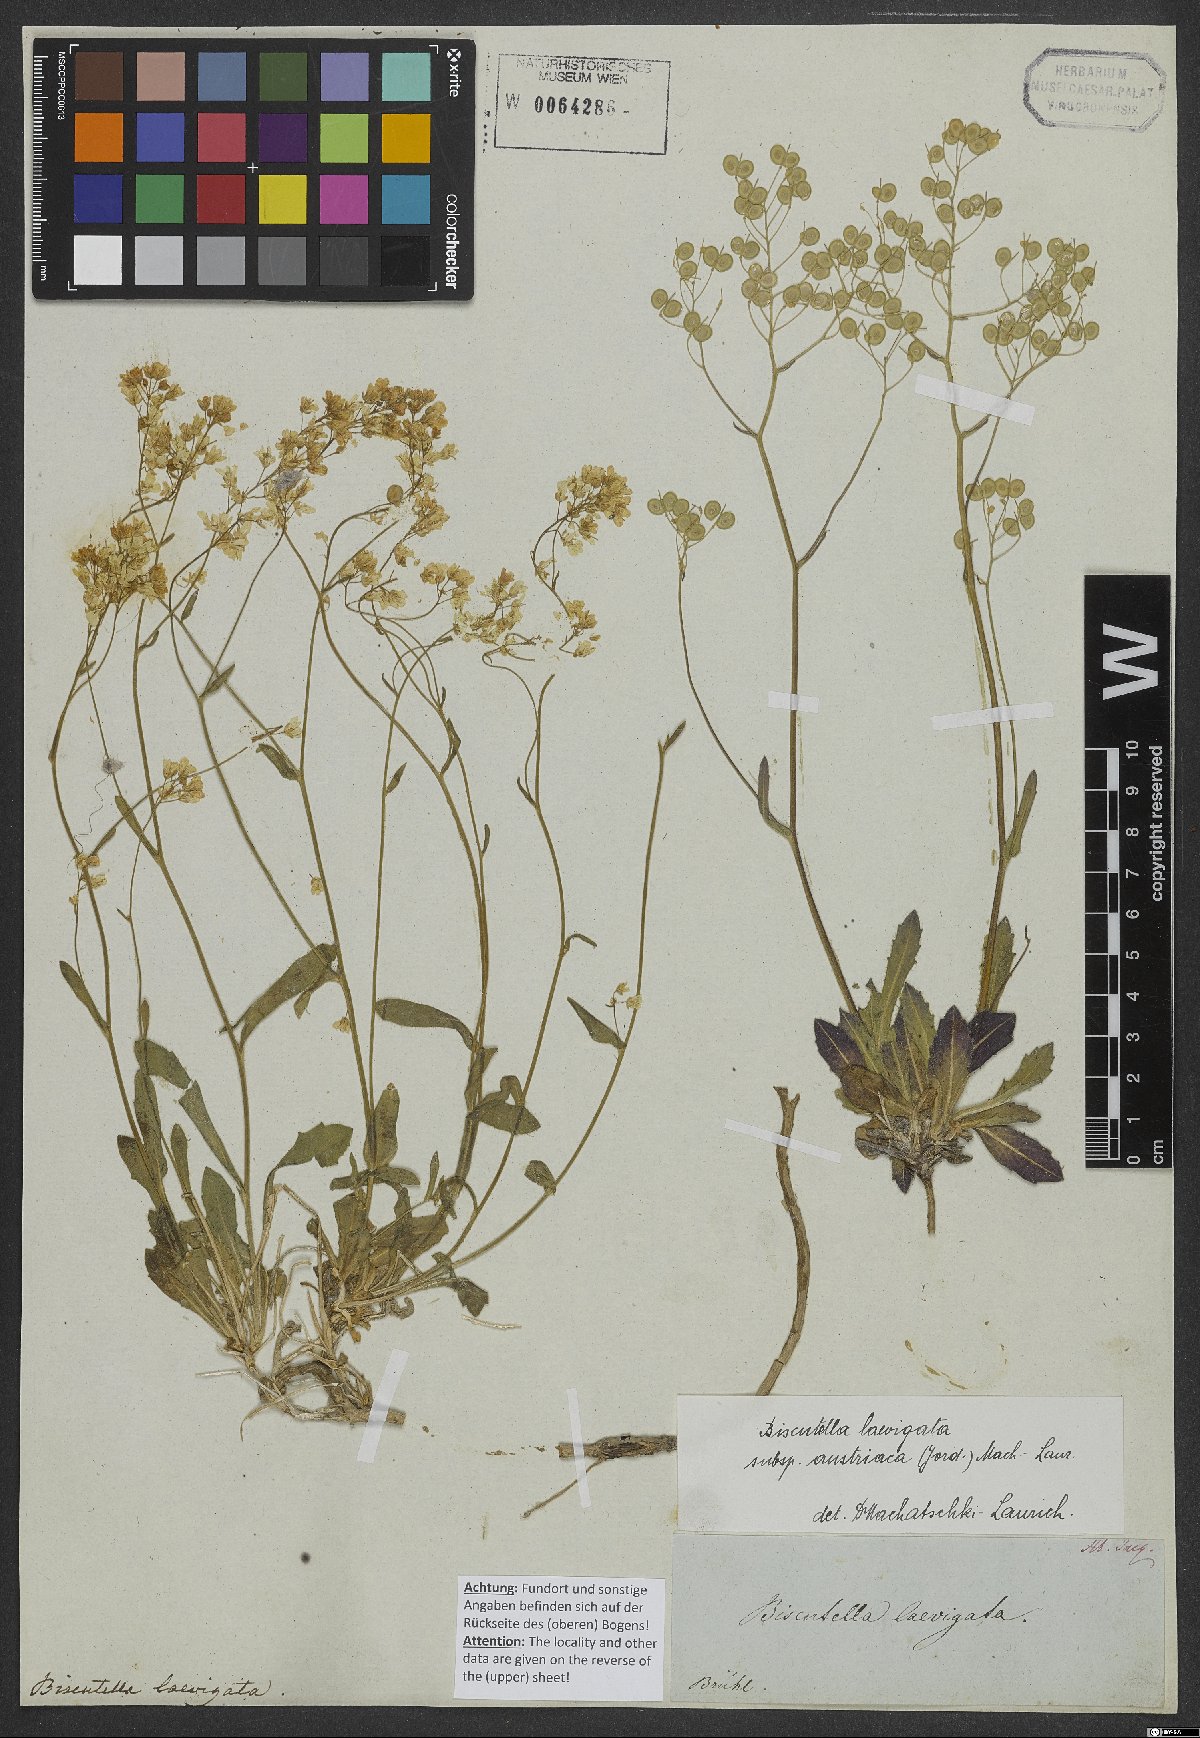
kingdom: Plantae
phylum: Tracheophyta
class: Magnoliopsida
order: Brassicales
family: Brassicaceae
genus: Biscutella
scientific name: Biscutella laevigata
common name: Buckler mustard
